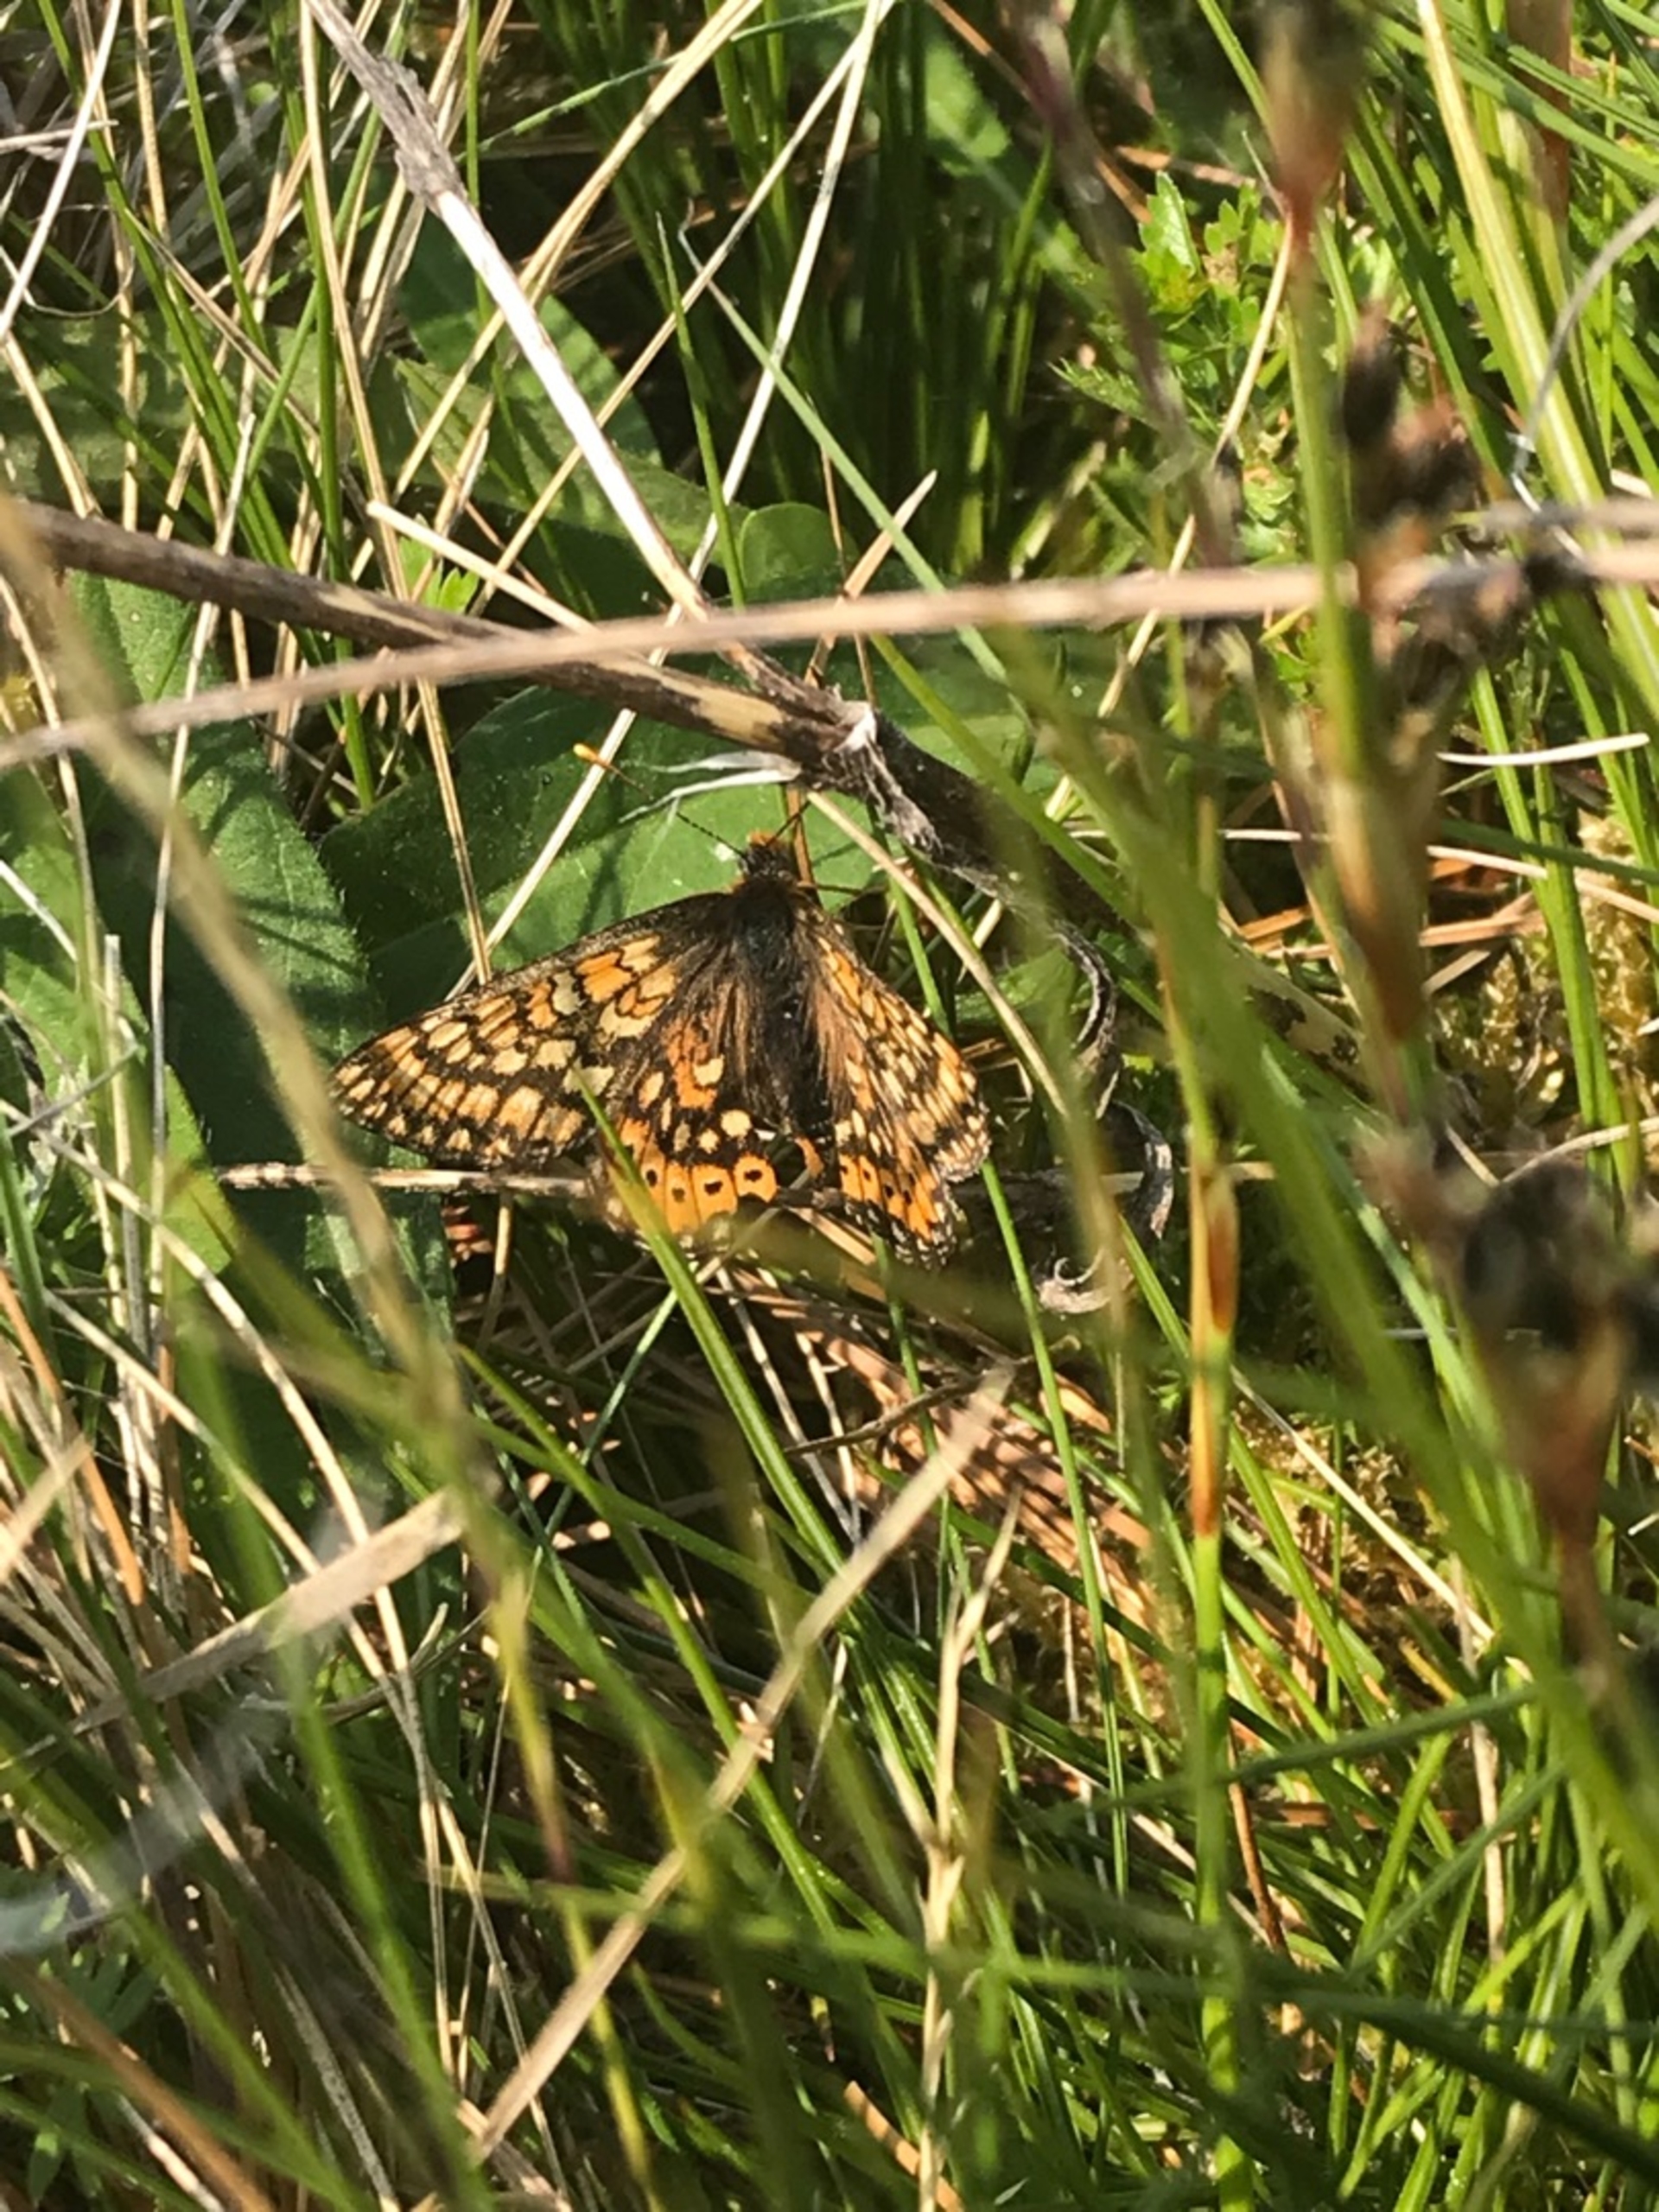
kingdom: Animalia
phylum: Arthropoda
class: Insecta
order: Lepidoptera
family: Nymphalidae
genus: Euphydryas
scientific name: Euphydryas aurinia
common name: Hedepletvinge
